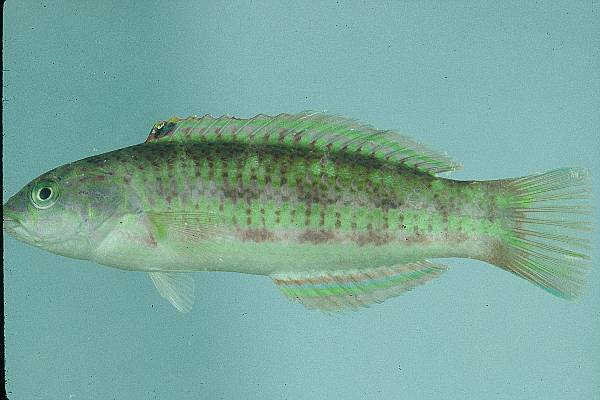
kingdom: Animalia
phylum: Chordata
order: Perciformes
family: Labridae
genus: Thalassoma
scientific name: Thalassoma purpureum
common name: Parrotfish
